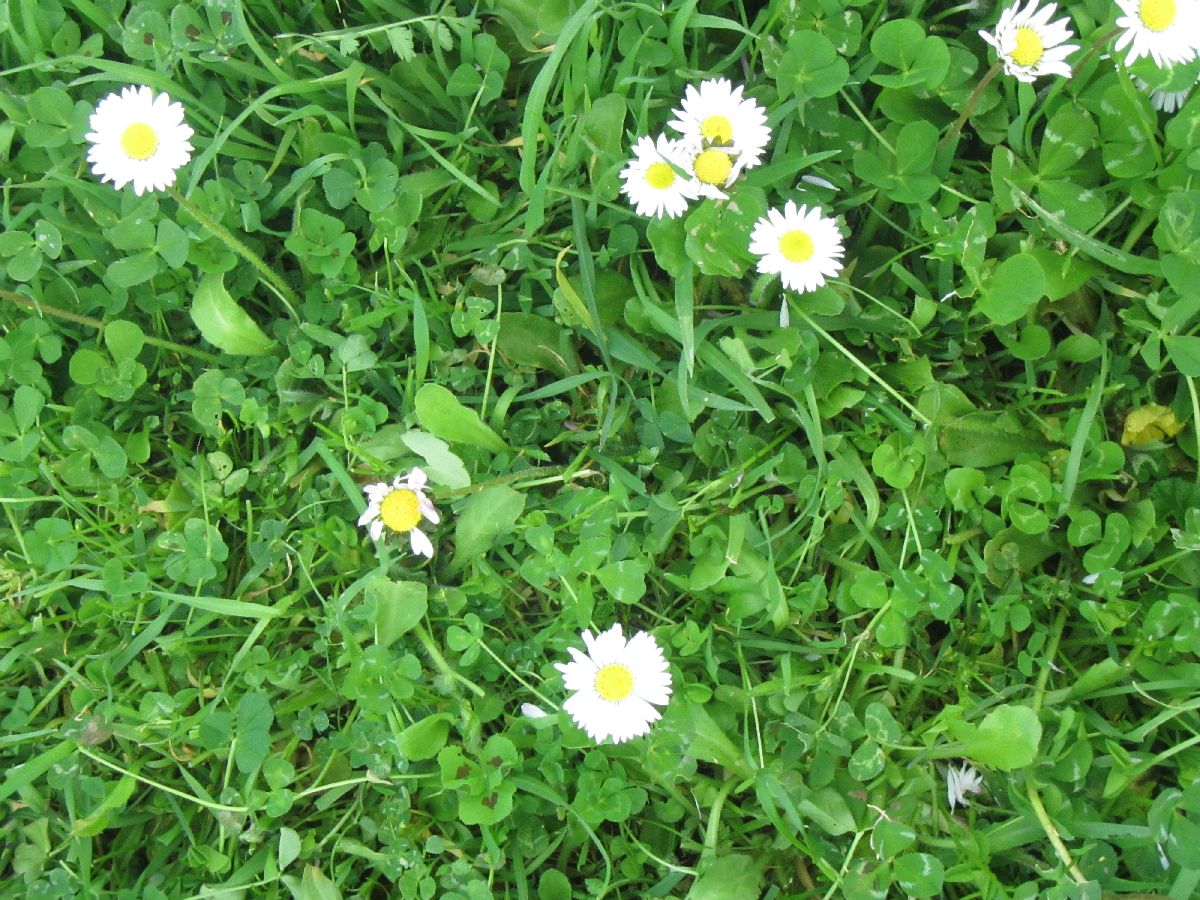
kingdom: Plantae
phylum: Tracheophyta
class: Magnoliopsida
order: Asterales
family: Asteraceae
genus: Bellis
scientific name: Bellis perennis
